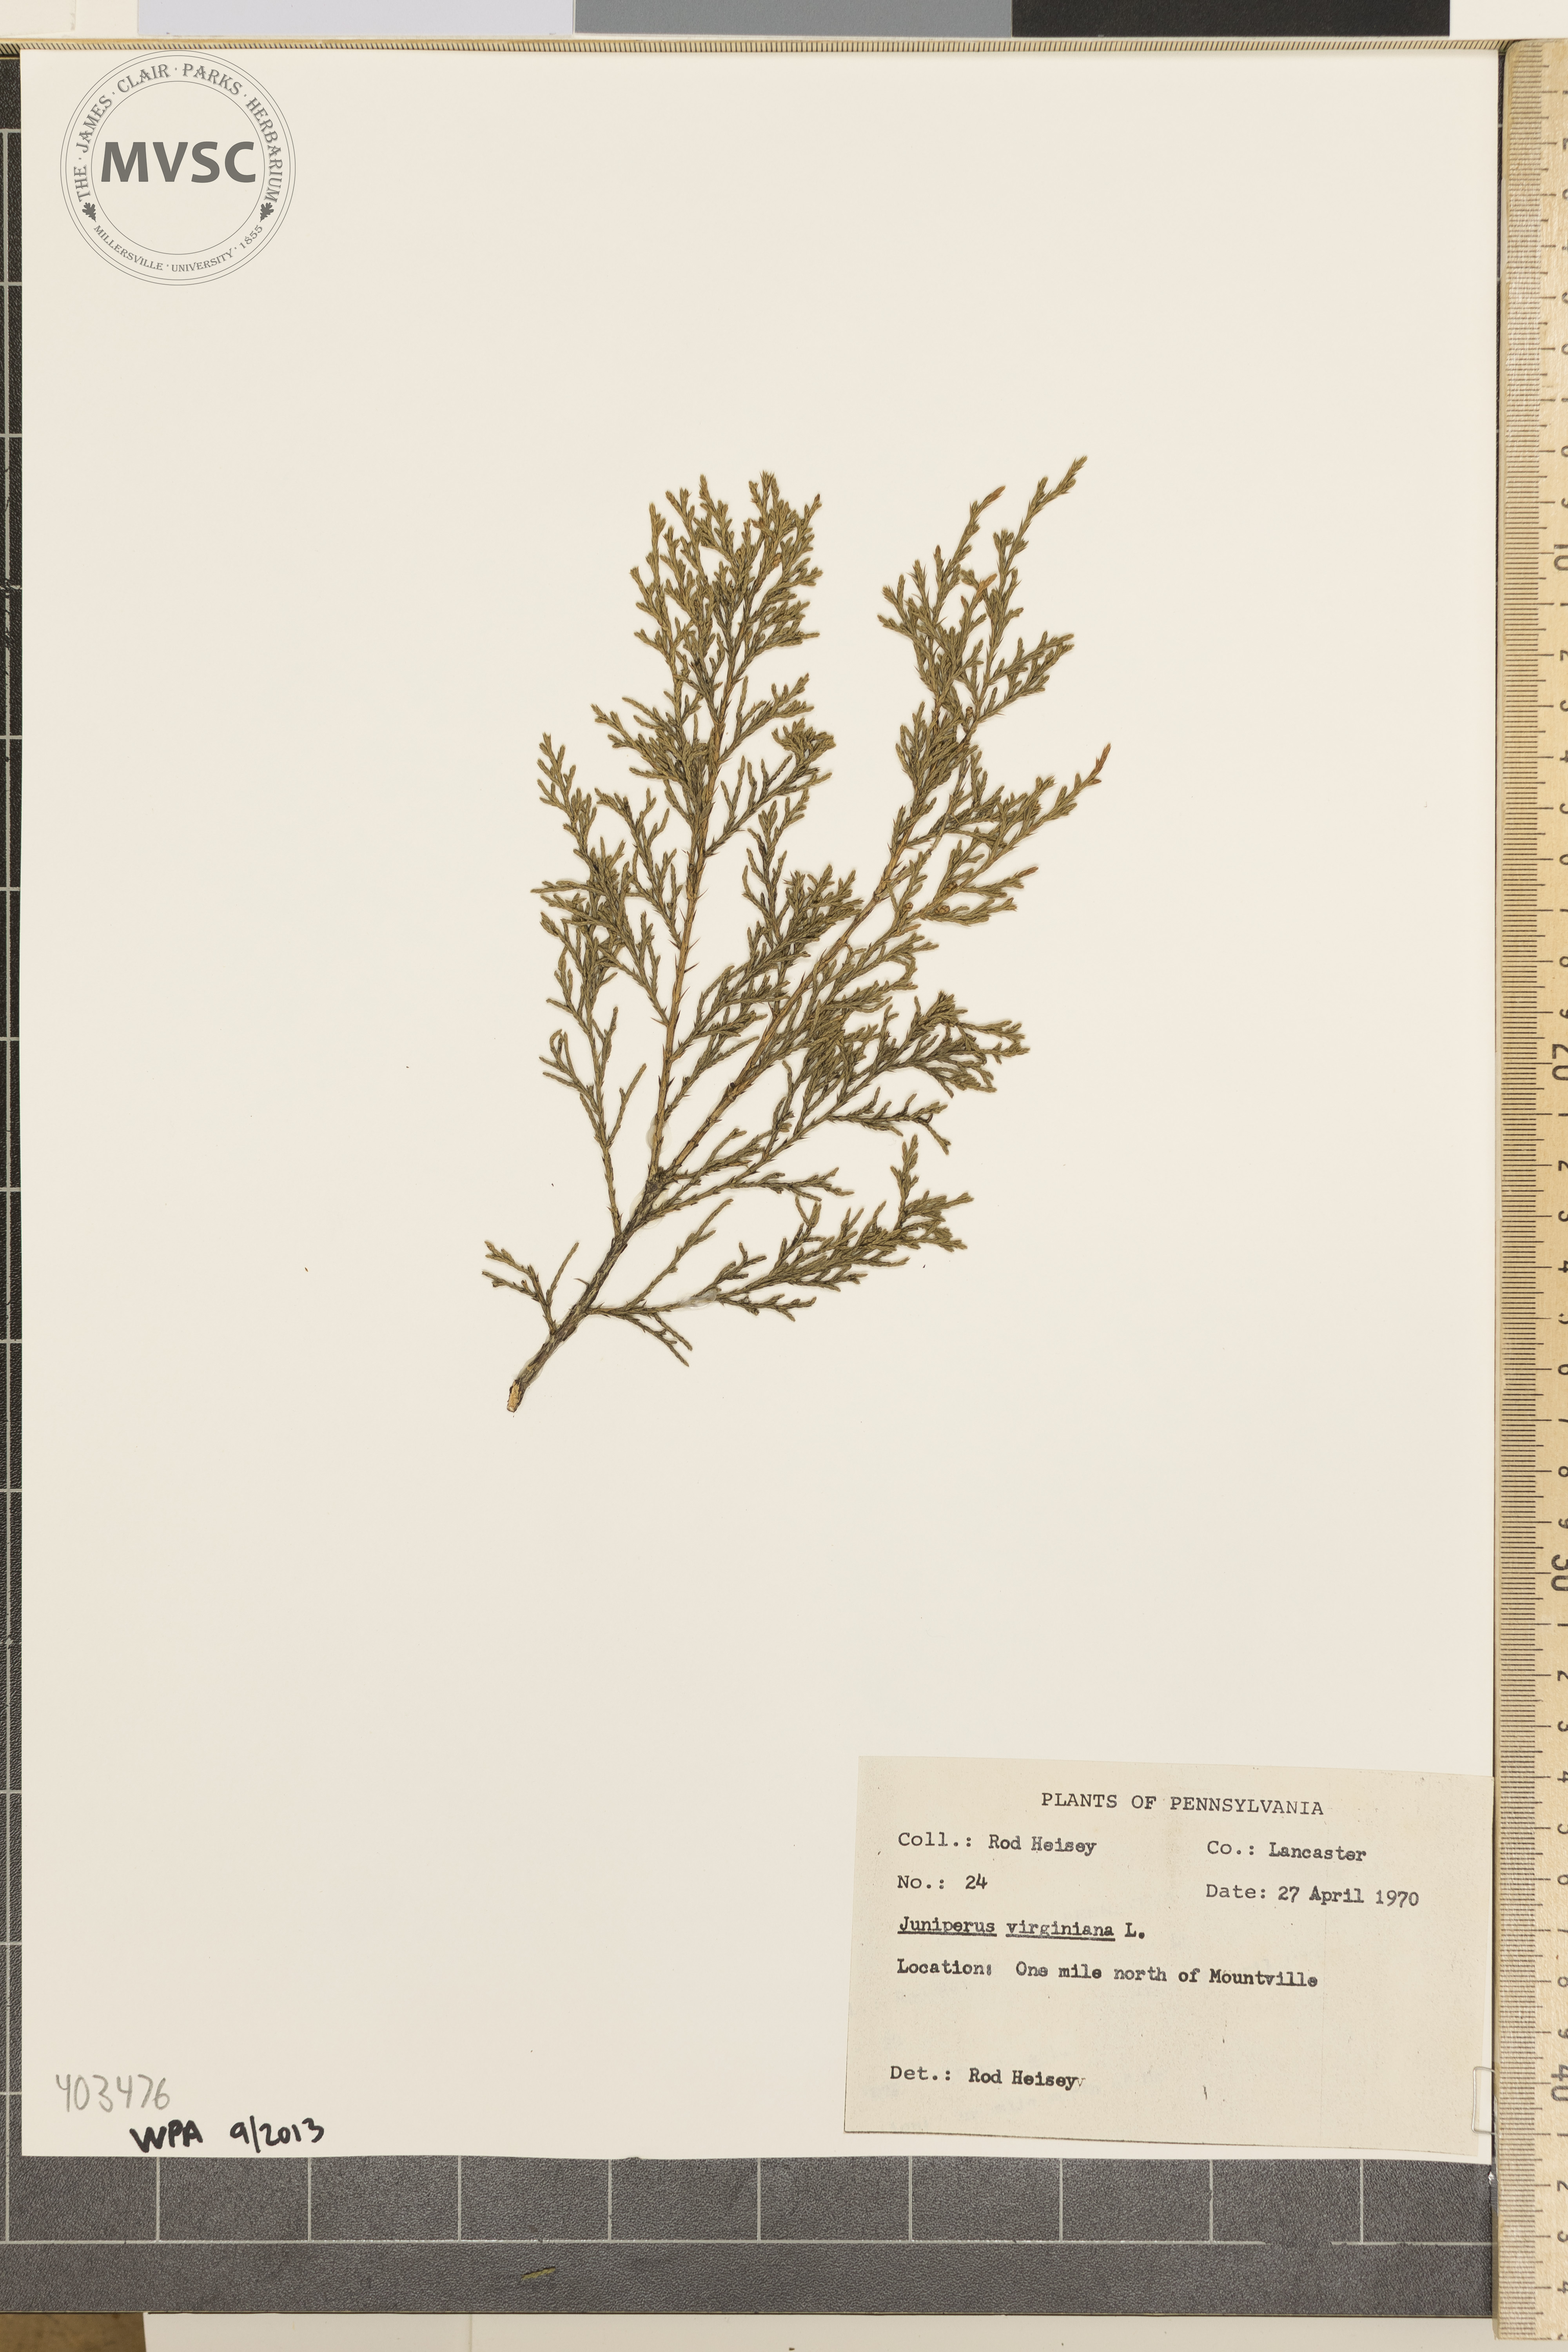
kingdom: Plantae
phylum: Tracheophyta
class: Pinopsida
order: Pinales
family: Cupressaceae
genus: Juniperus
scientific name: Juniperus virginiana
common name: Eastern redcedar
